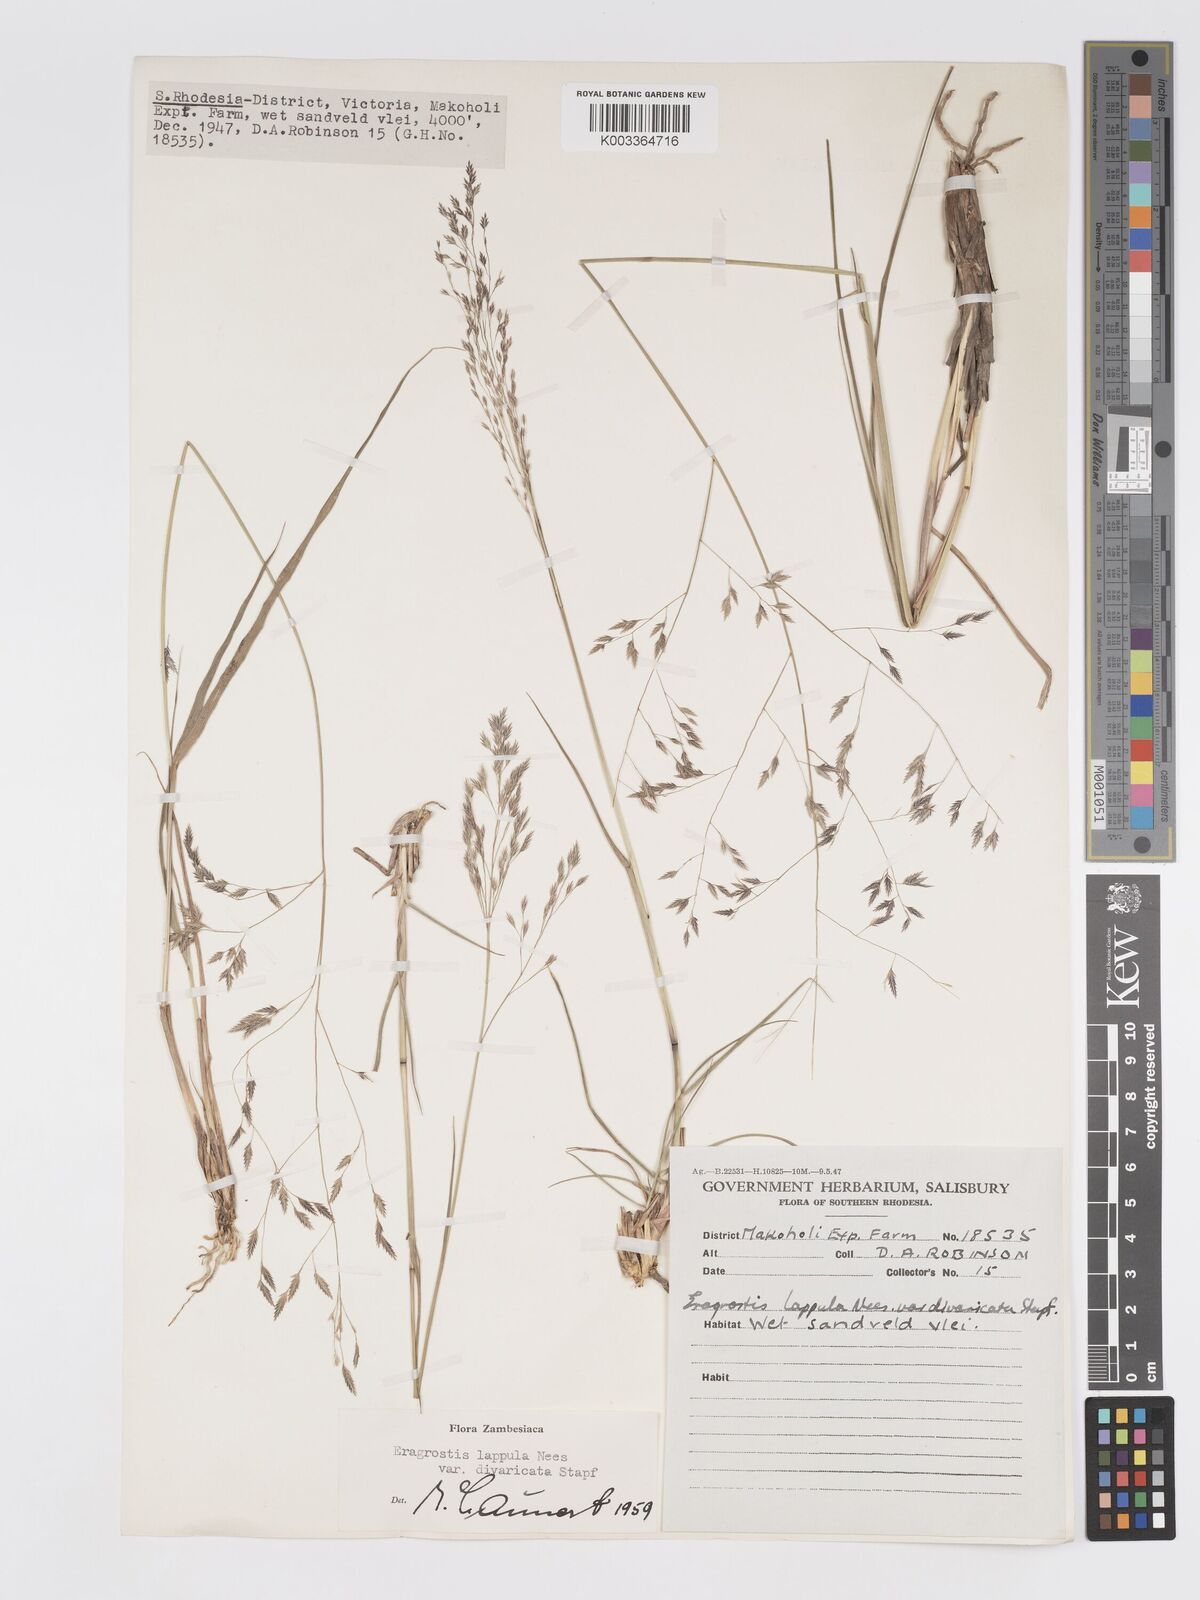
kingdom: Plantae
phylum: Tracheophyta
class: Liliopsida
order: Poales
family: Poaceae
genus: Eragrostis
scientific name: Eragrostis lappula
